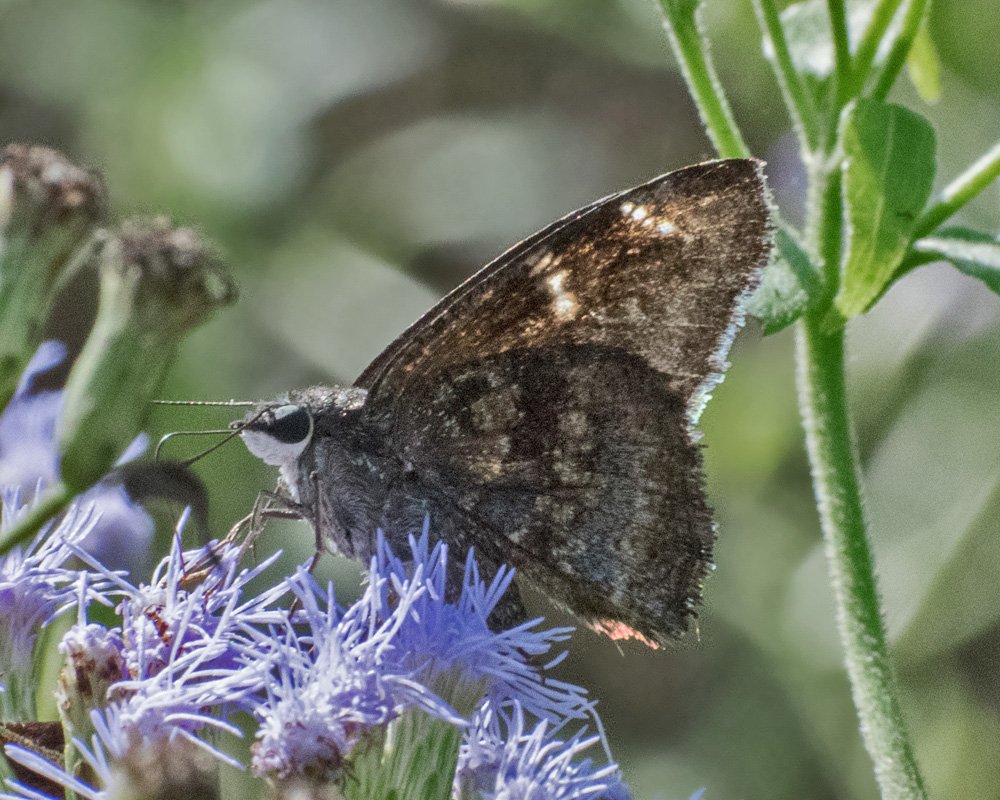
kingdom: Animalia
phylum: Arthropoda
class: Insecta
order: Lepidoptera
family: Hesperiidae
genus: Caicella
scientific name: Caicella calchas
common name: Mimosa Skipper
